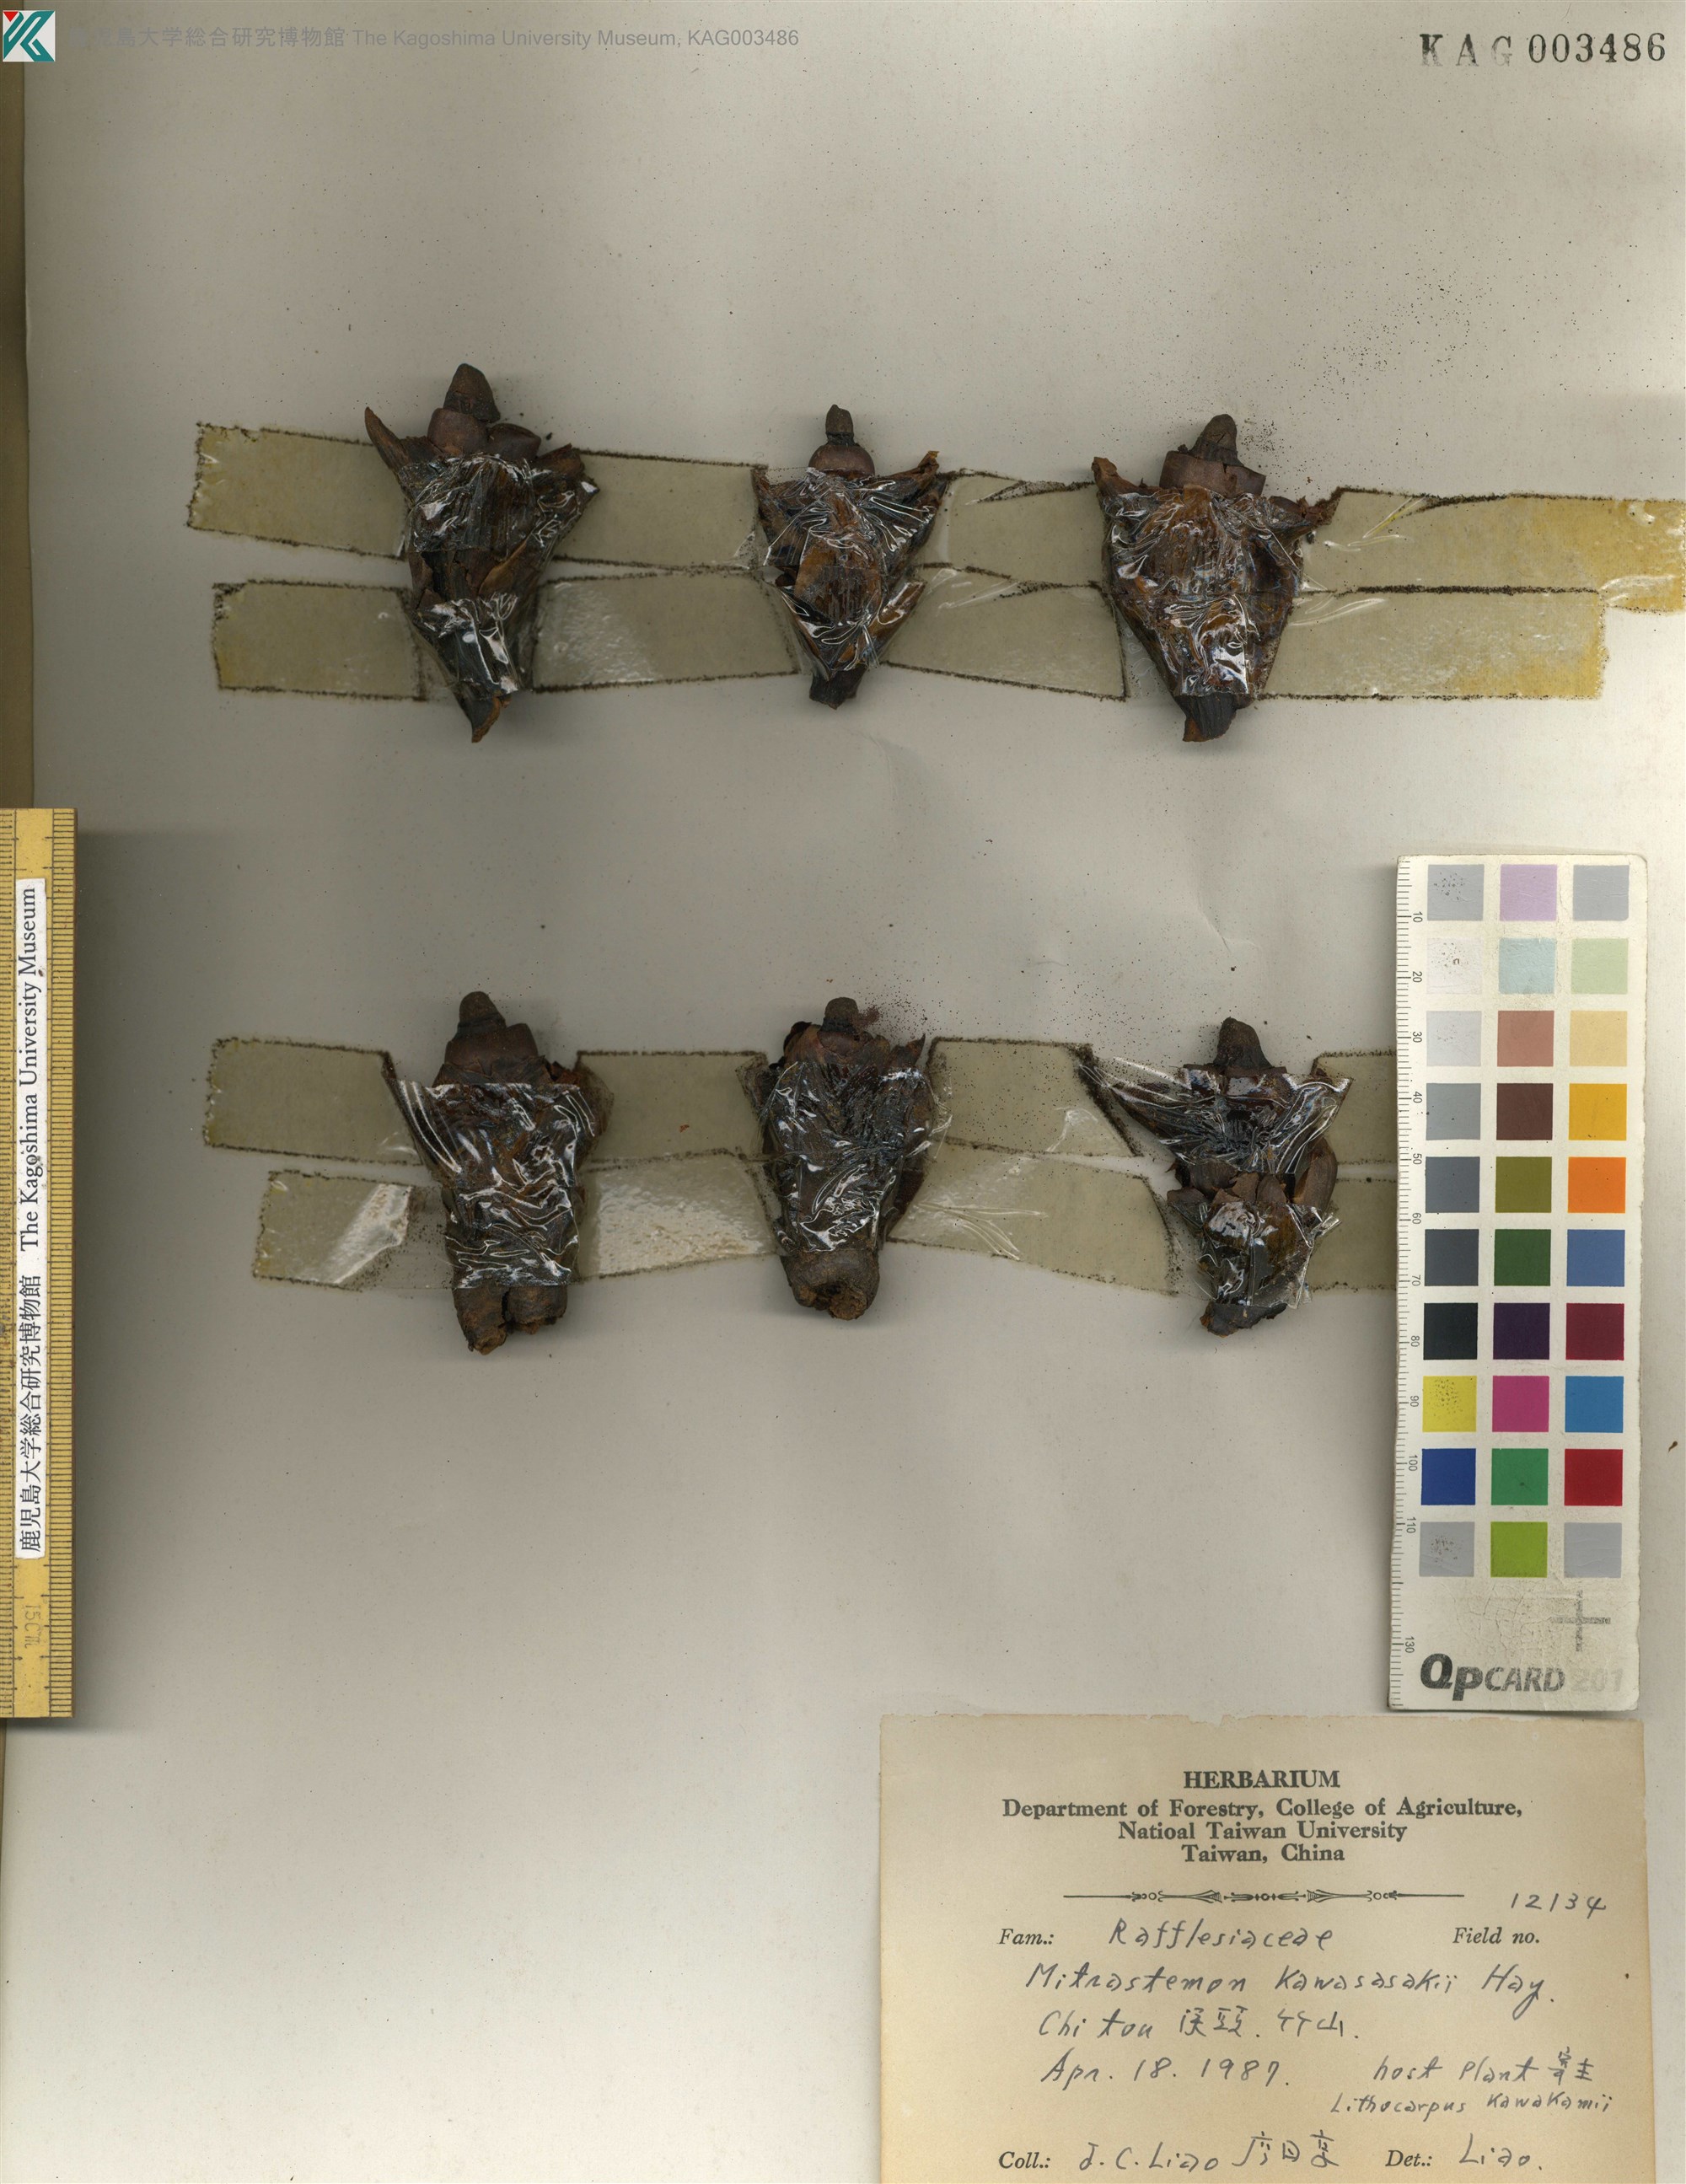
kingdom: Plantae
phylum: Tracheophyta
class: Magnoliopsida
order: Ericales
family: Mitrastemonaceae
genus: Mitrastemon
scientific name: Mitrastemon yamamotoi
